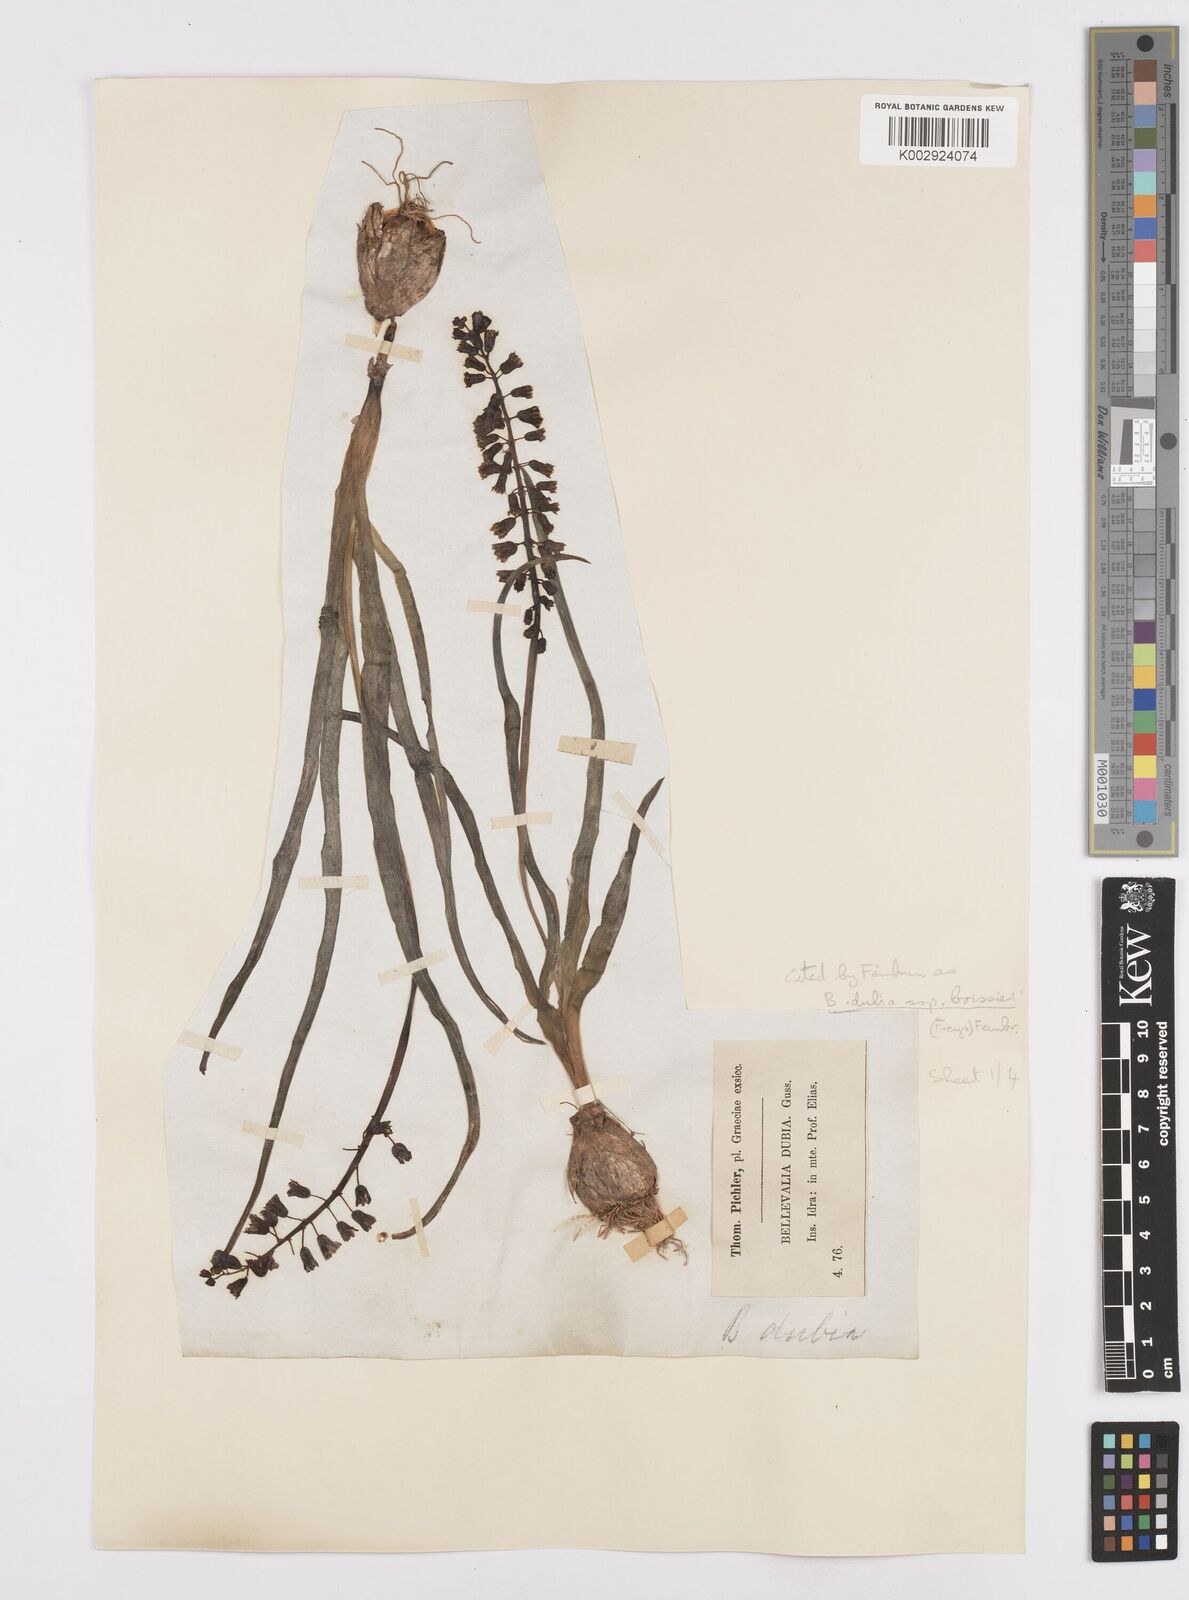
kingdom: Plantae
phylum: Tracheophyta
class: Liliopsida
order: Asparagales
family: Asparagaceae
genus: Bellevalia
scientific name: Bellevalia dubia
